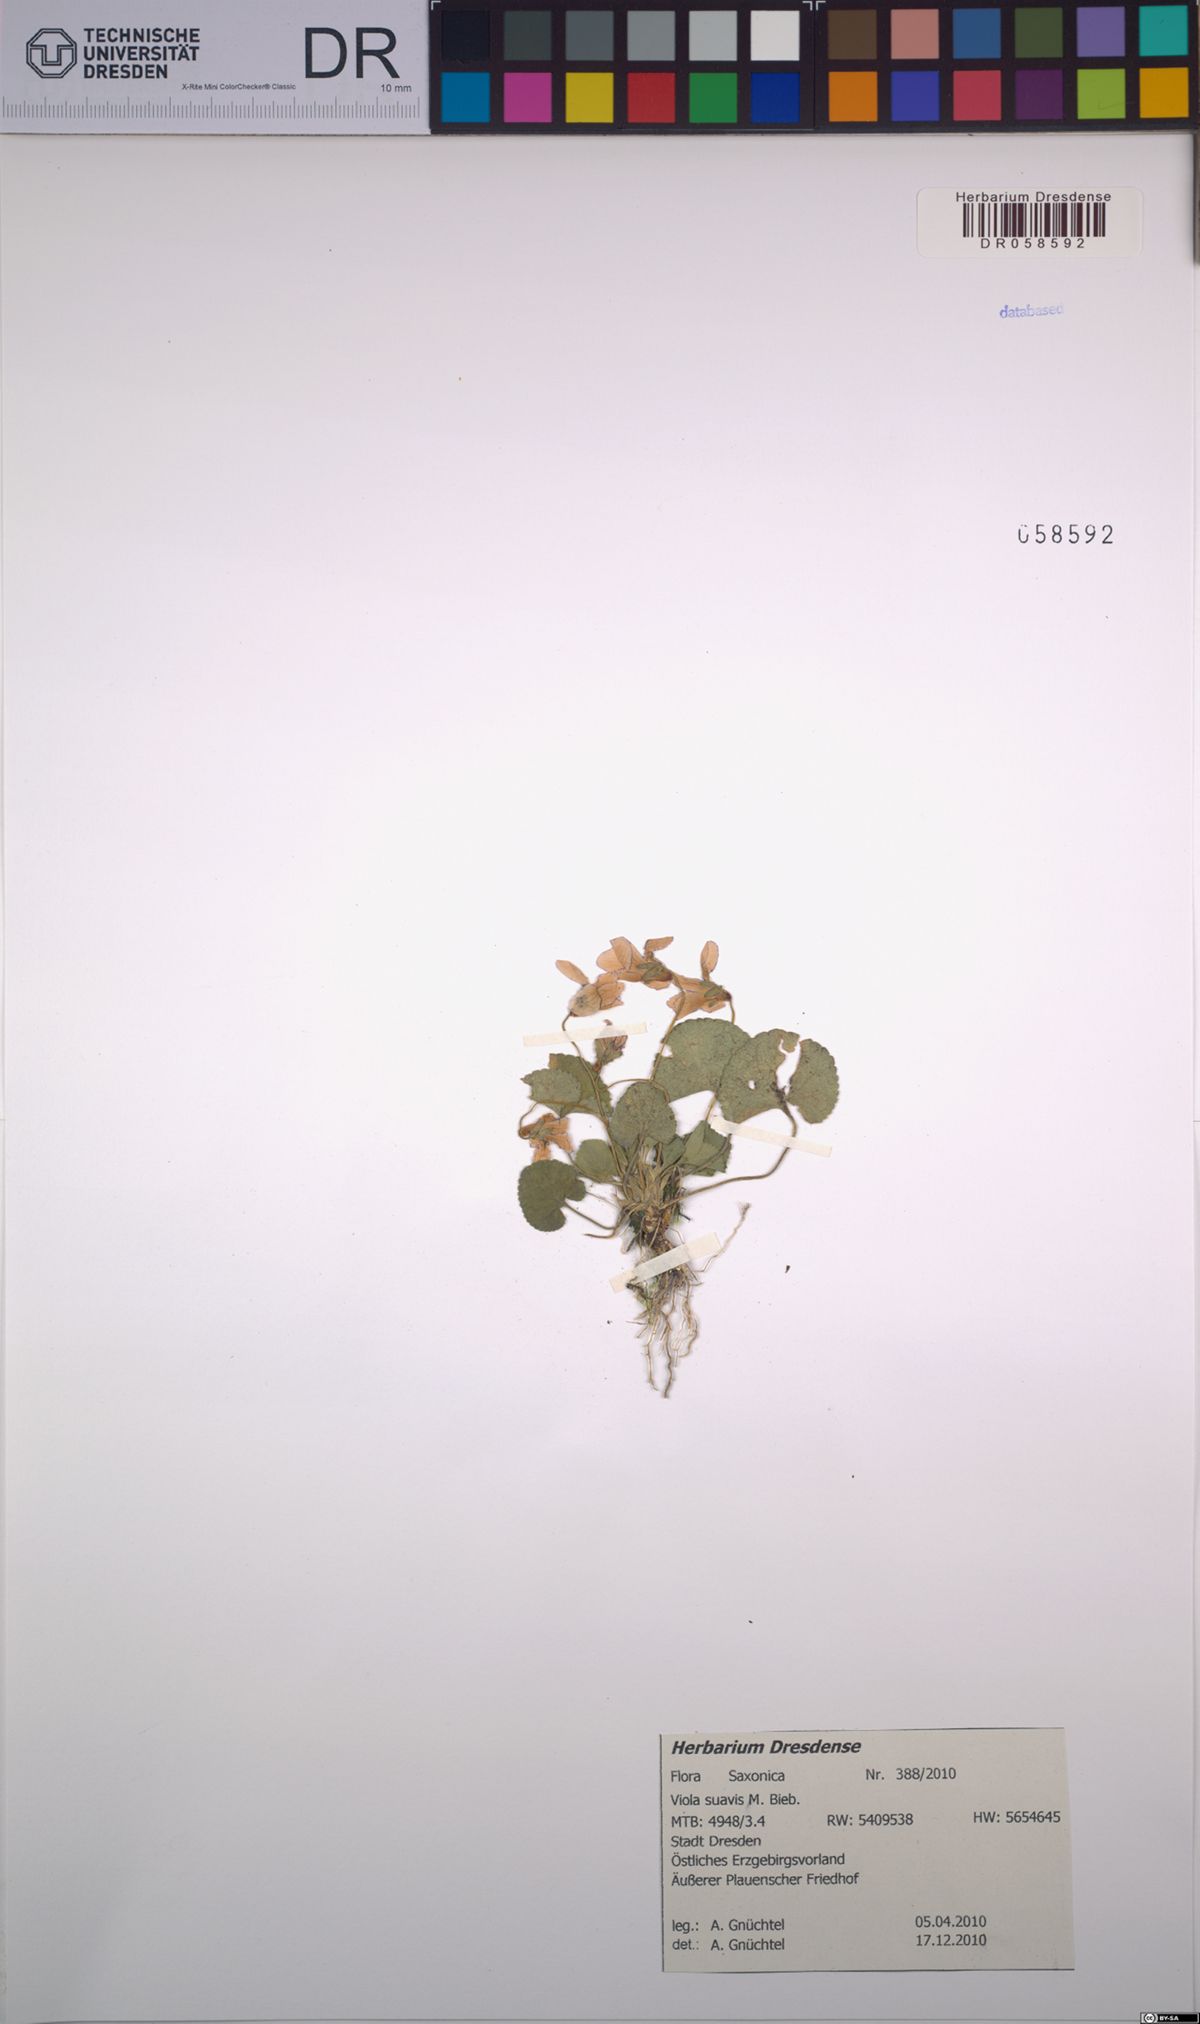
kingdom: Plantae
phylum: Tracheophyta
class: Magnoliopsida
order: Malpighiales
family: Violaceae
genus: Viola
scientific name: Viola suavis
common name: Russian violet
